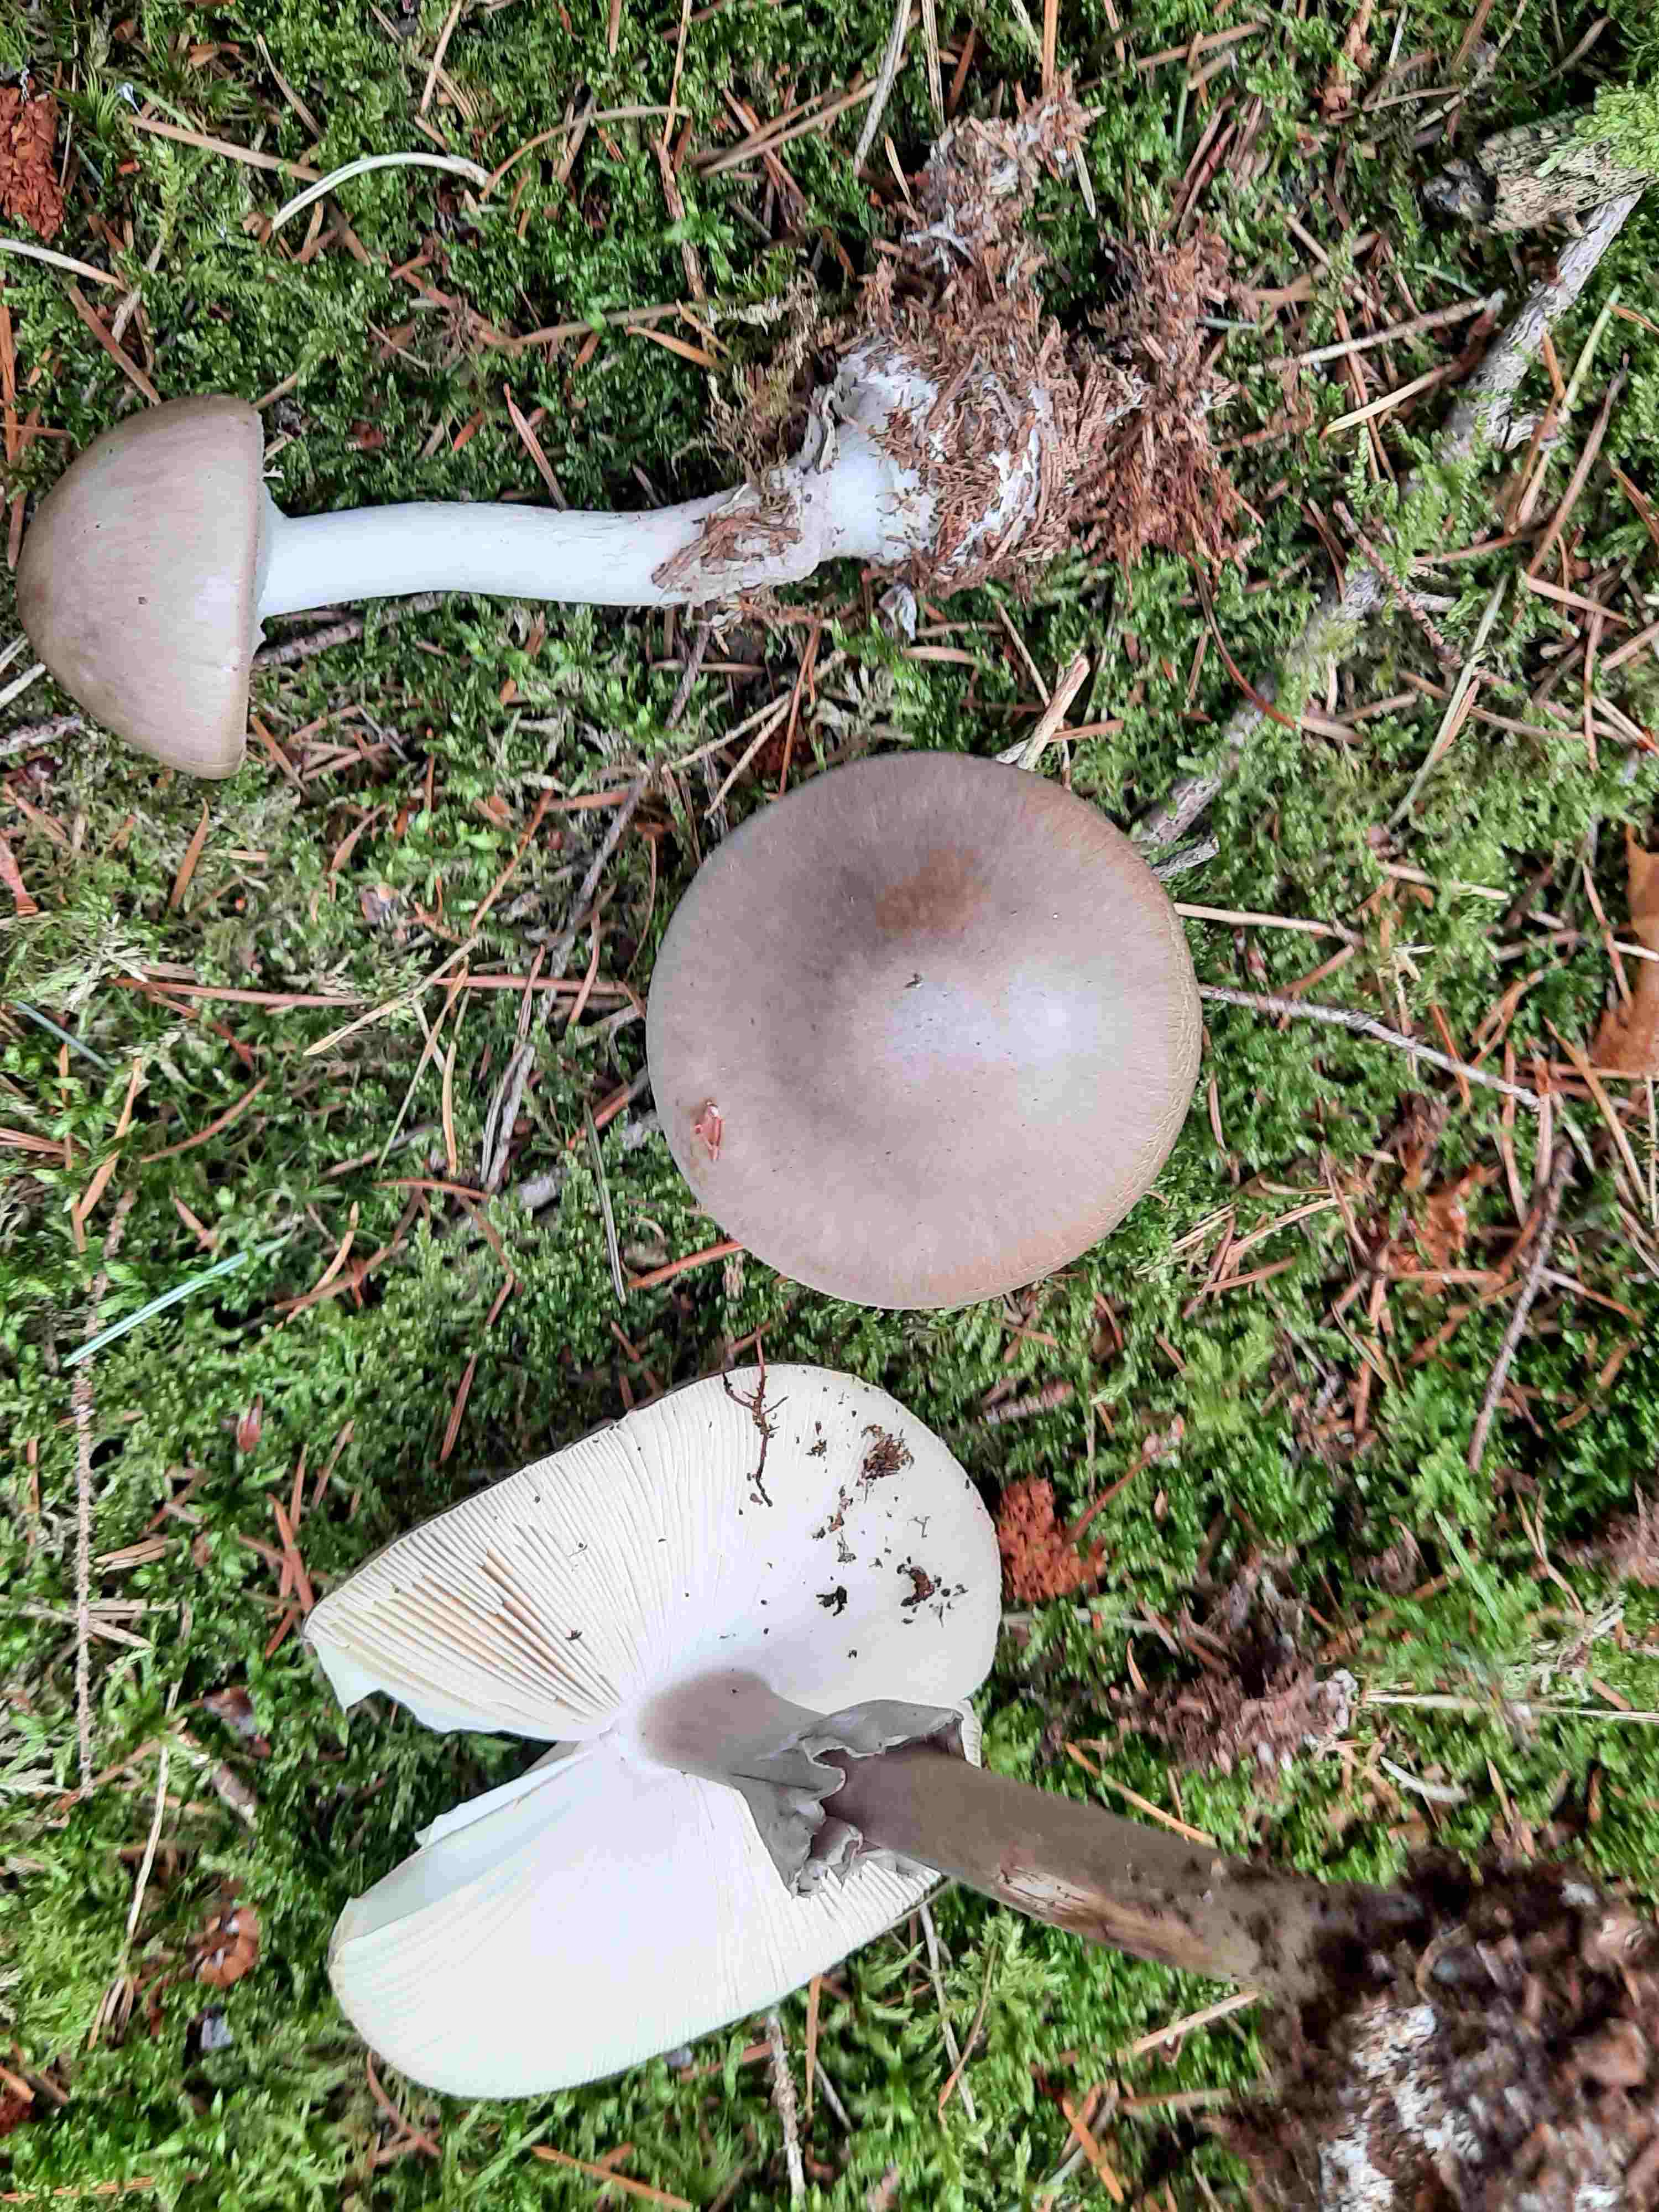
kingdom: Fungi
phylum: Basidiomycota
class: Agaricomycetes
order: Agaricales
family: Amanitaceae
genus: Amanita
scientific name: Amanita porphyria
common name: porfyr-fluesvamp
